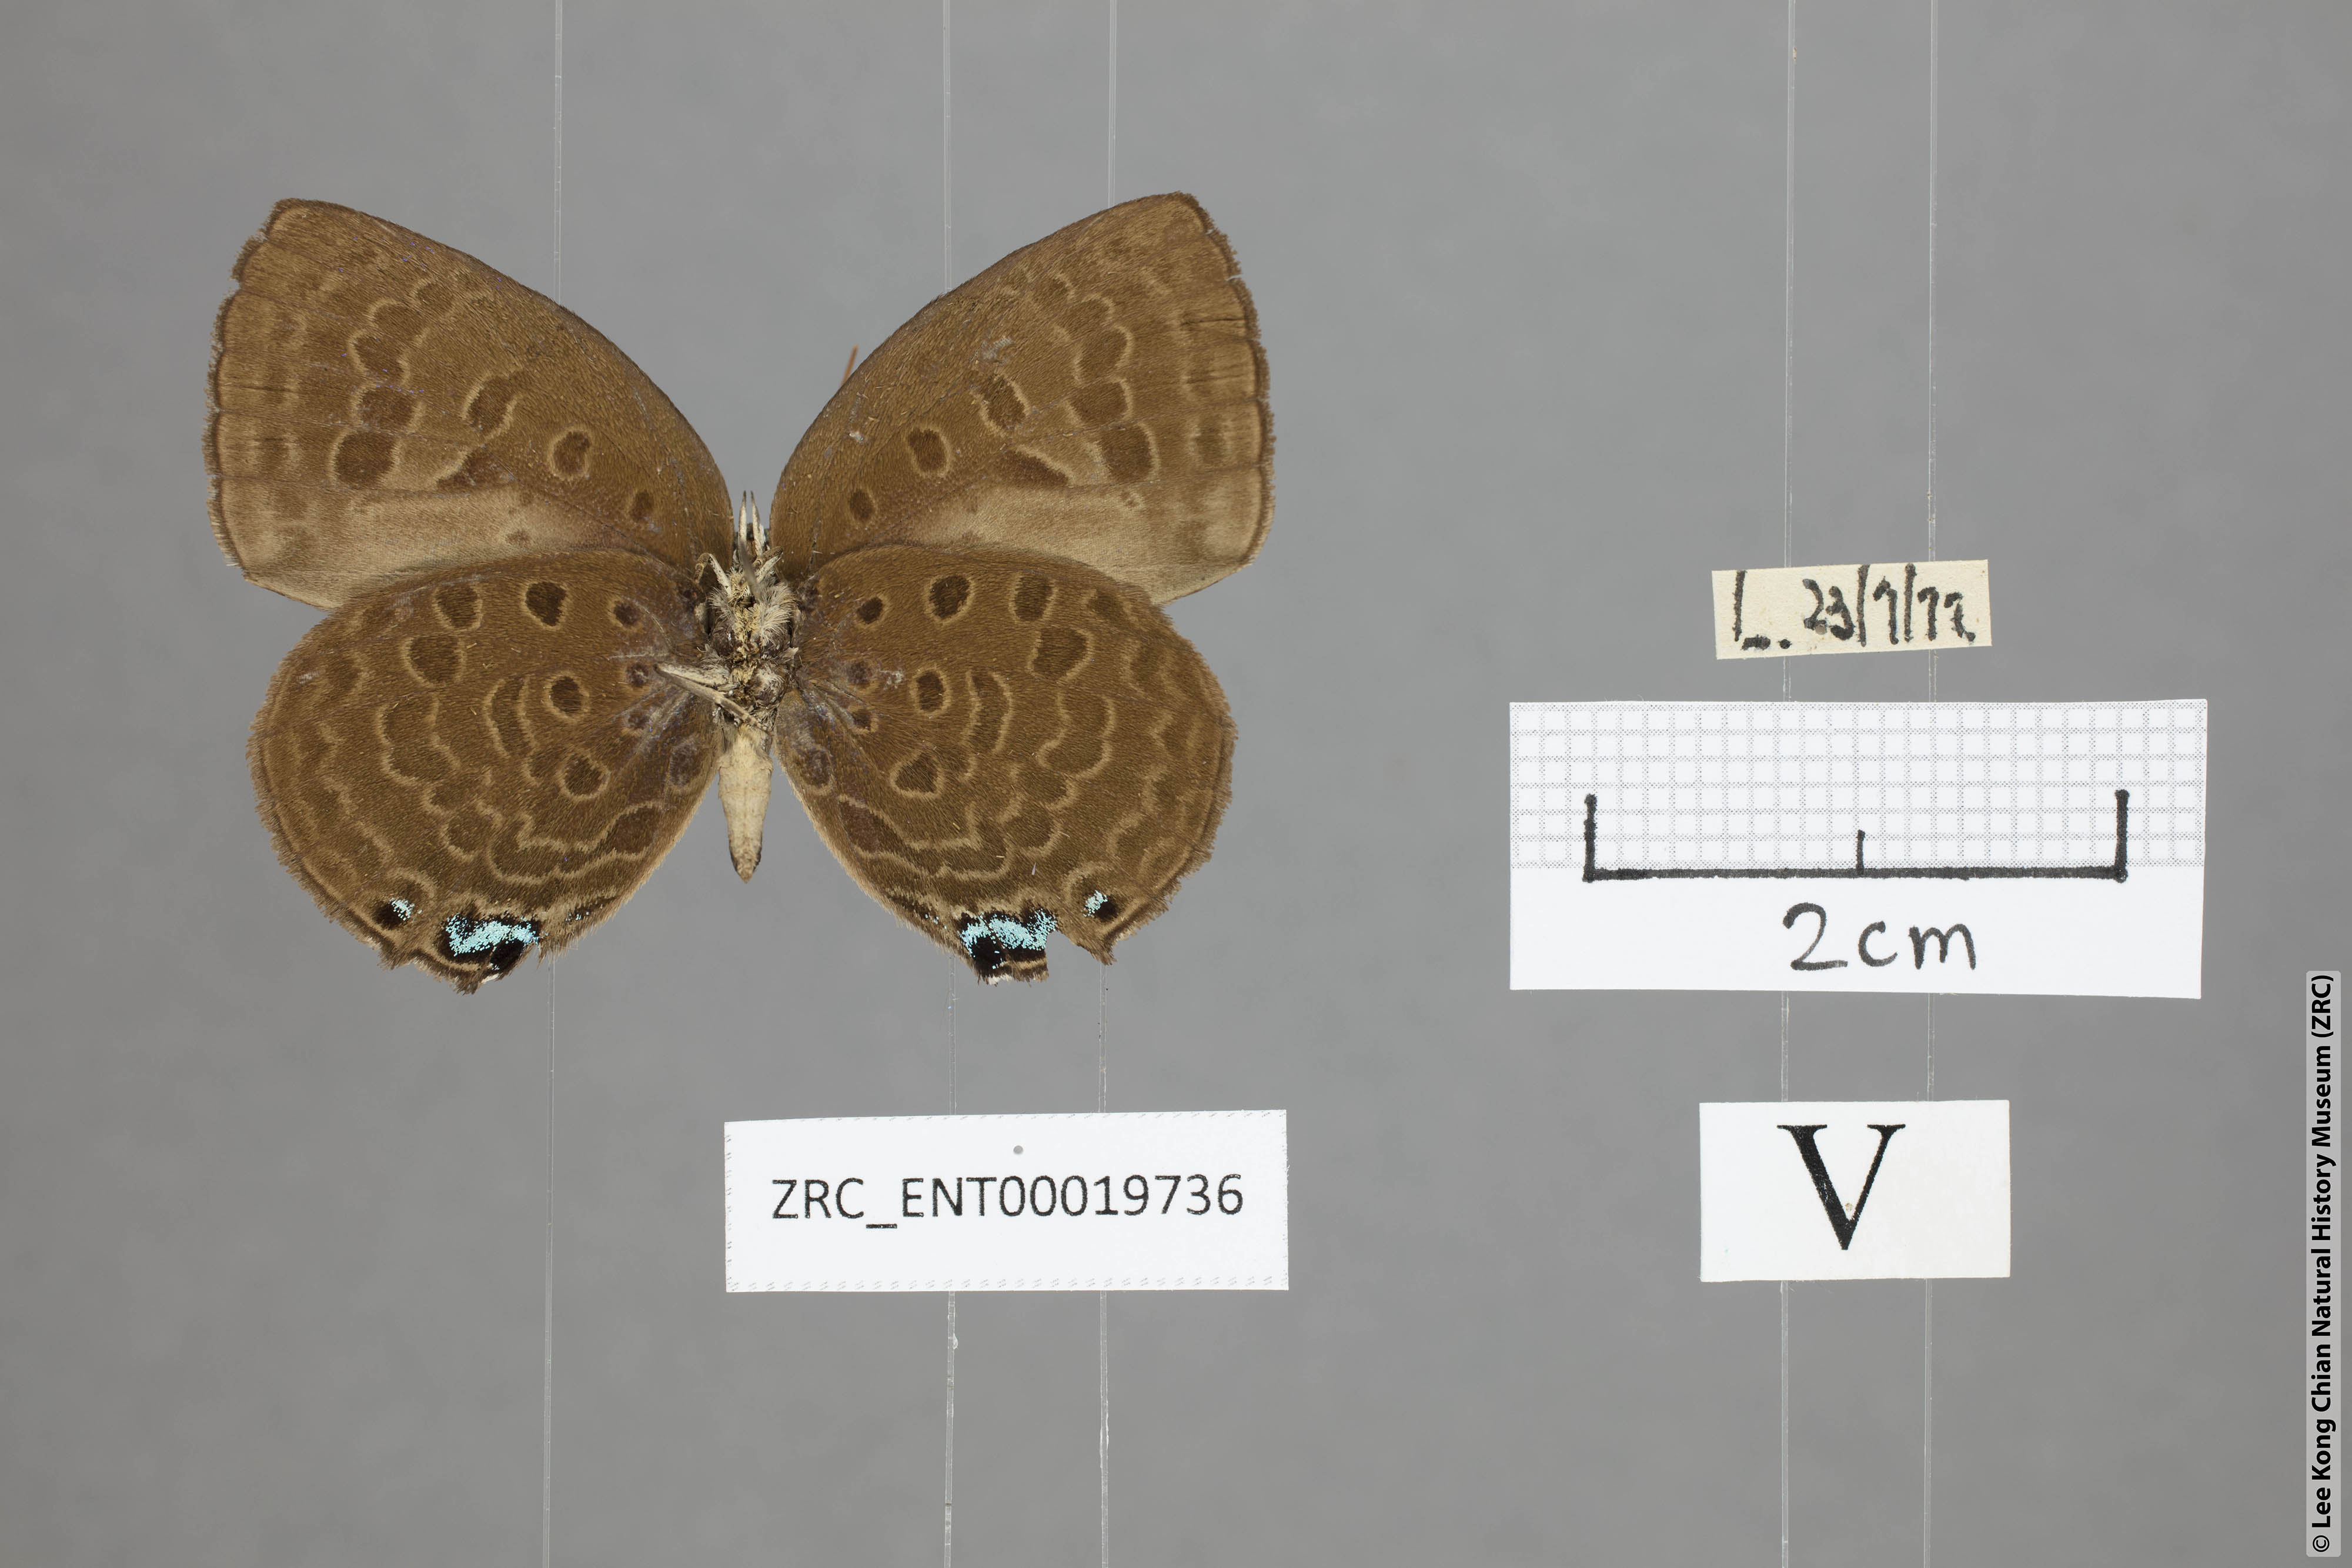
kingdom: Animalia
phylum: Arthropoda
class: Insecta
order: Lepidoptera
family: Lycaenidae
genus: Arhopala
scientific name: Arhopala
